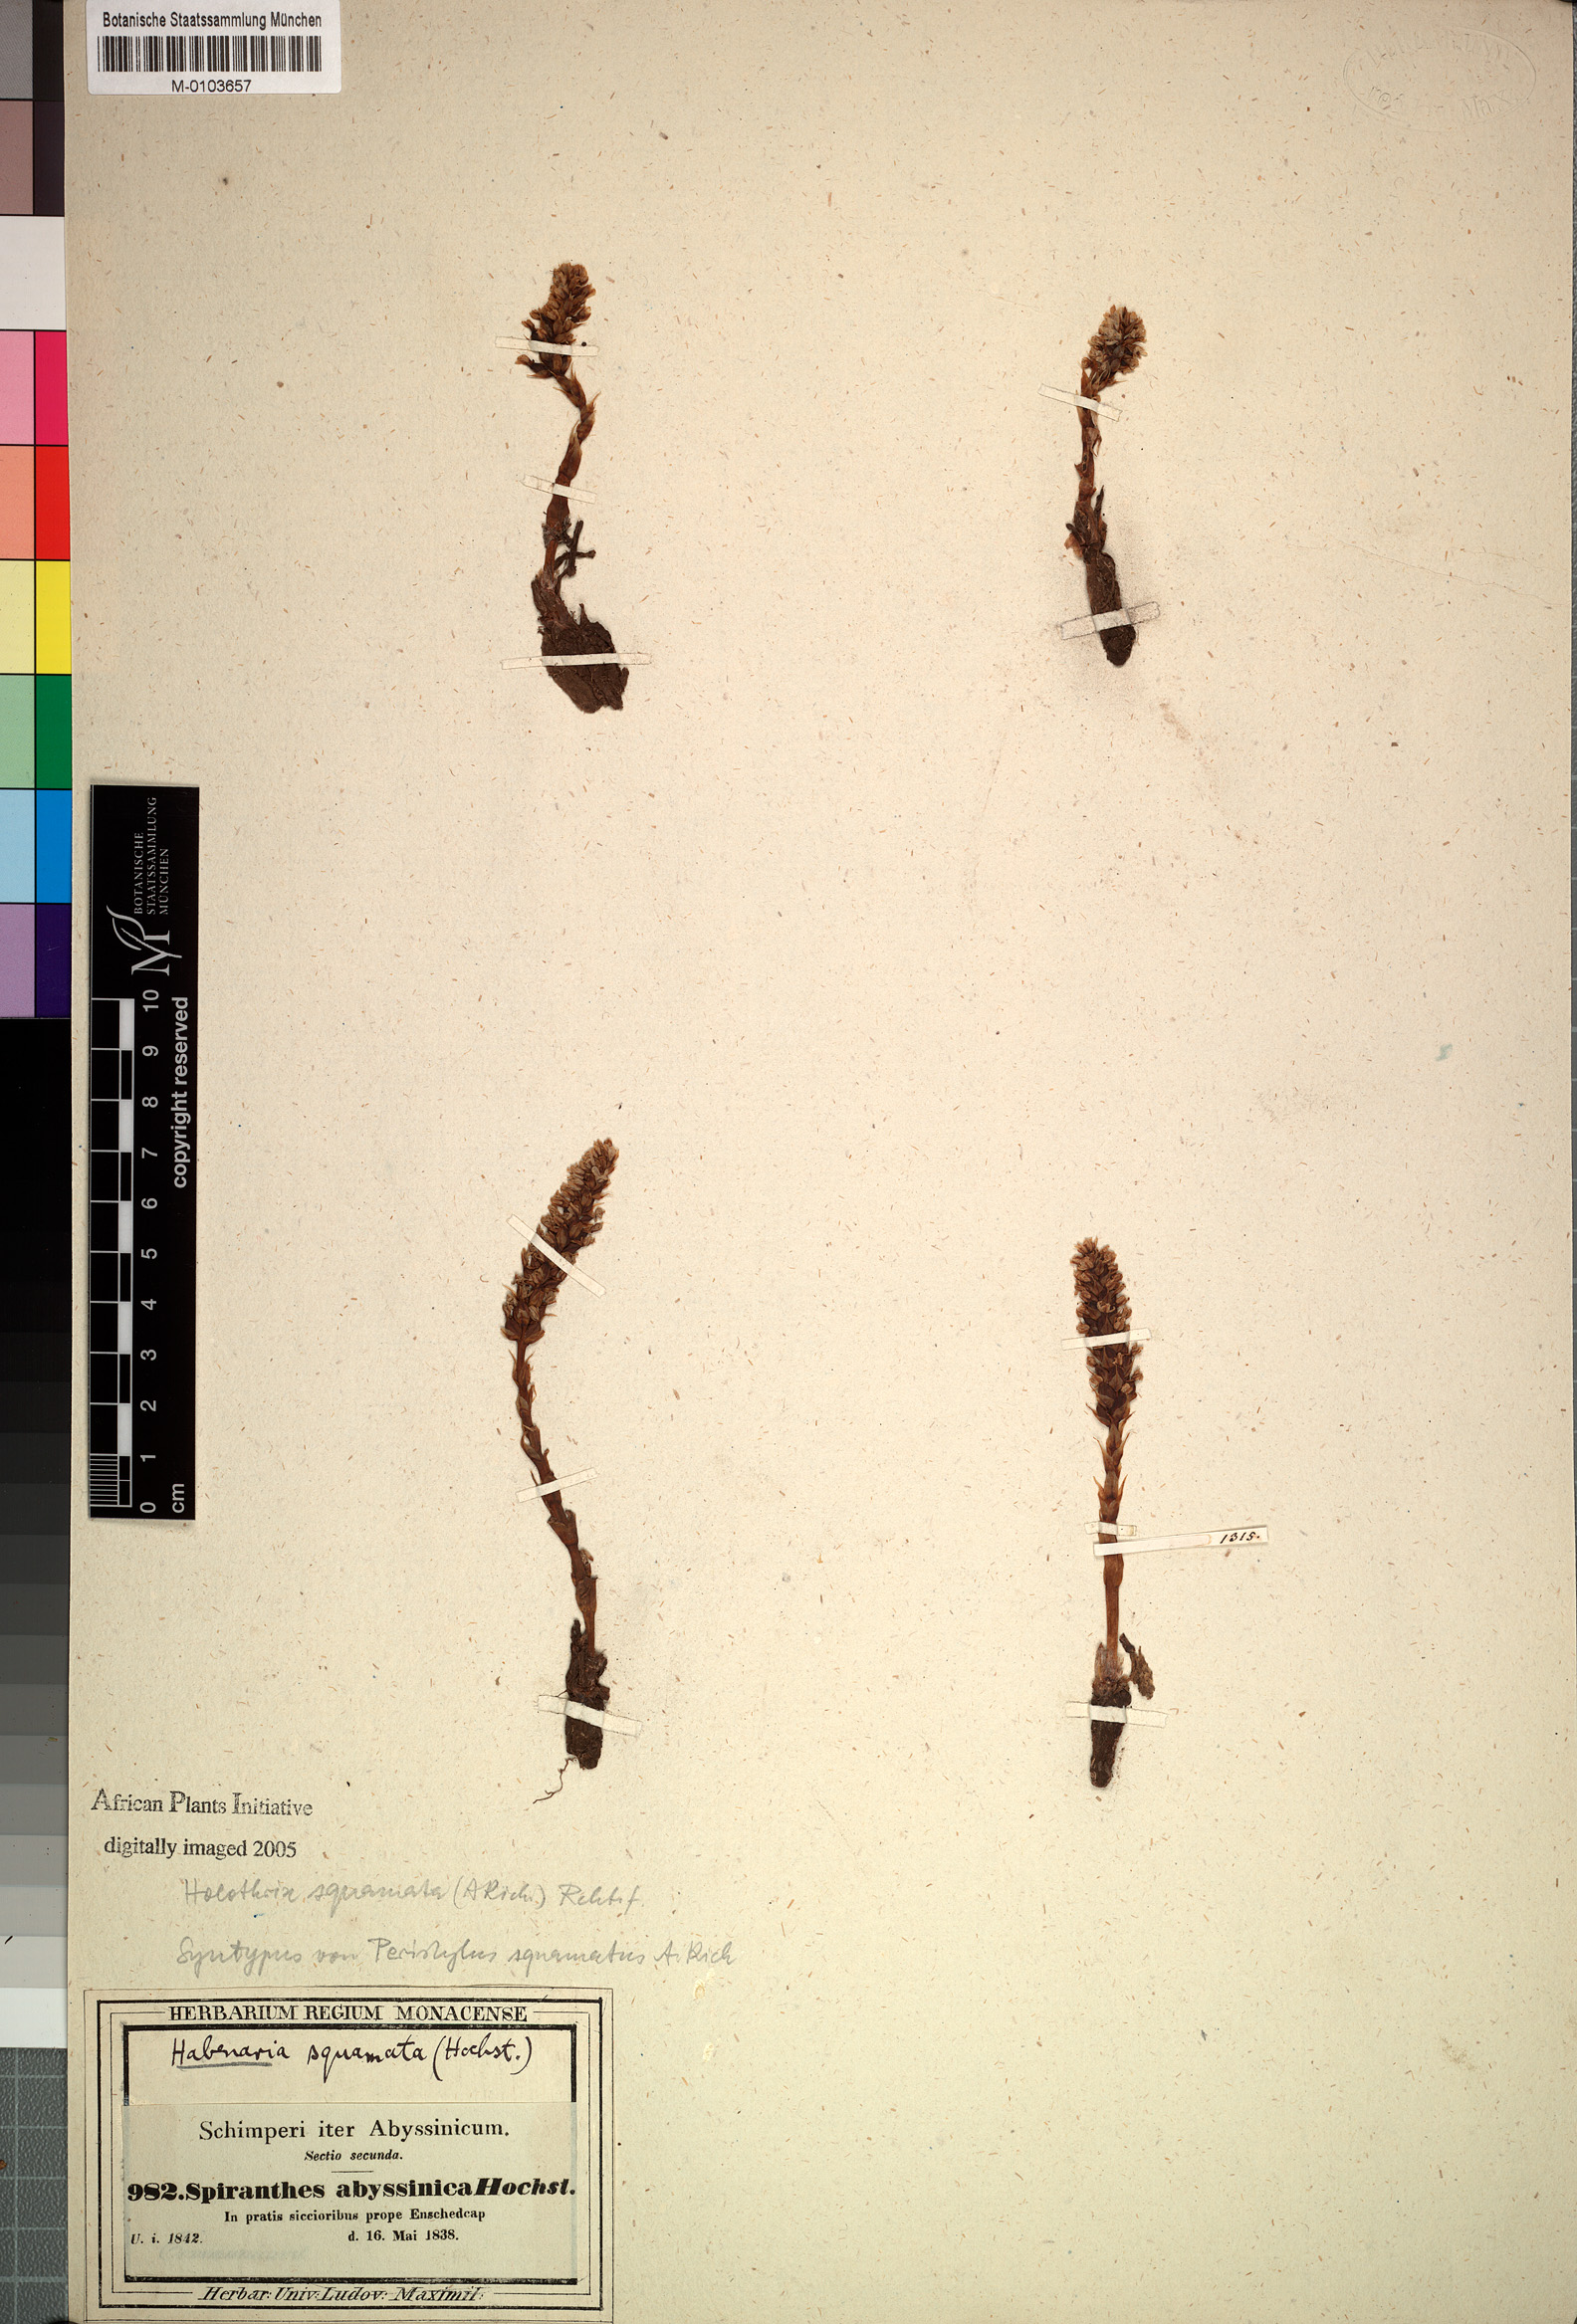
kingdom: Plantae
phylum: Tracheophyta
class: Liliopsida
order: Asparagales
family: Orchidaceae
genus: Holothrix
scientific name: Holothrix squammata
